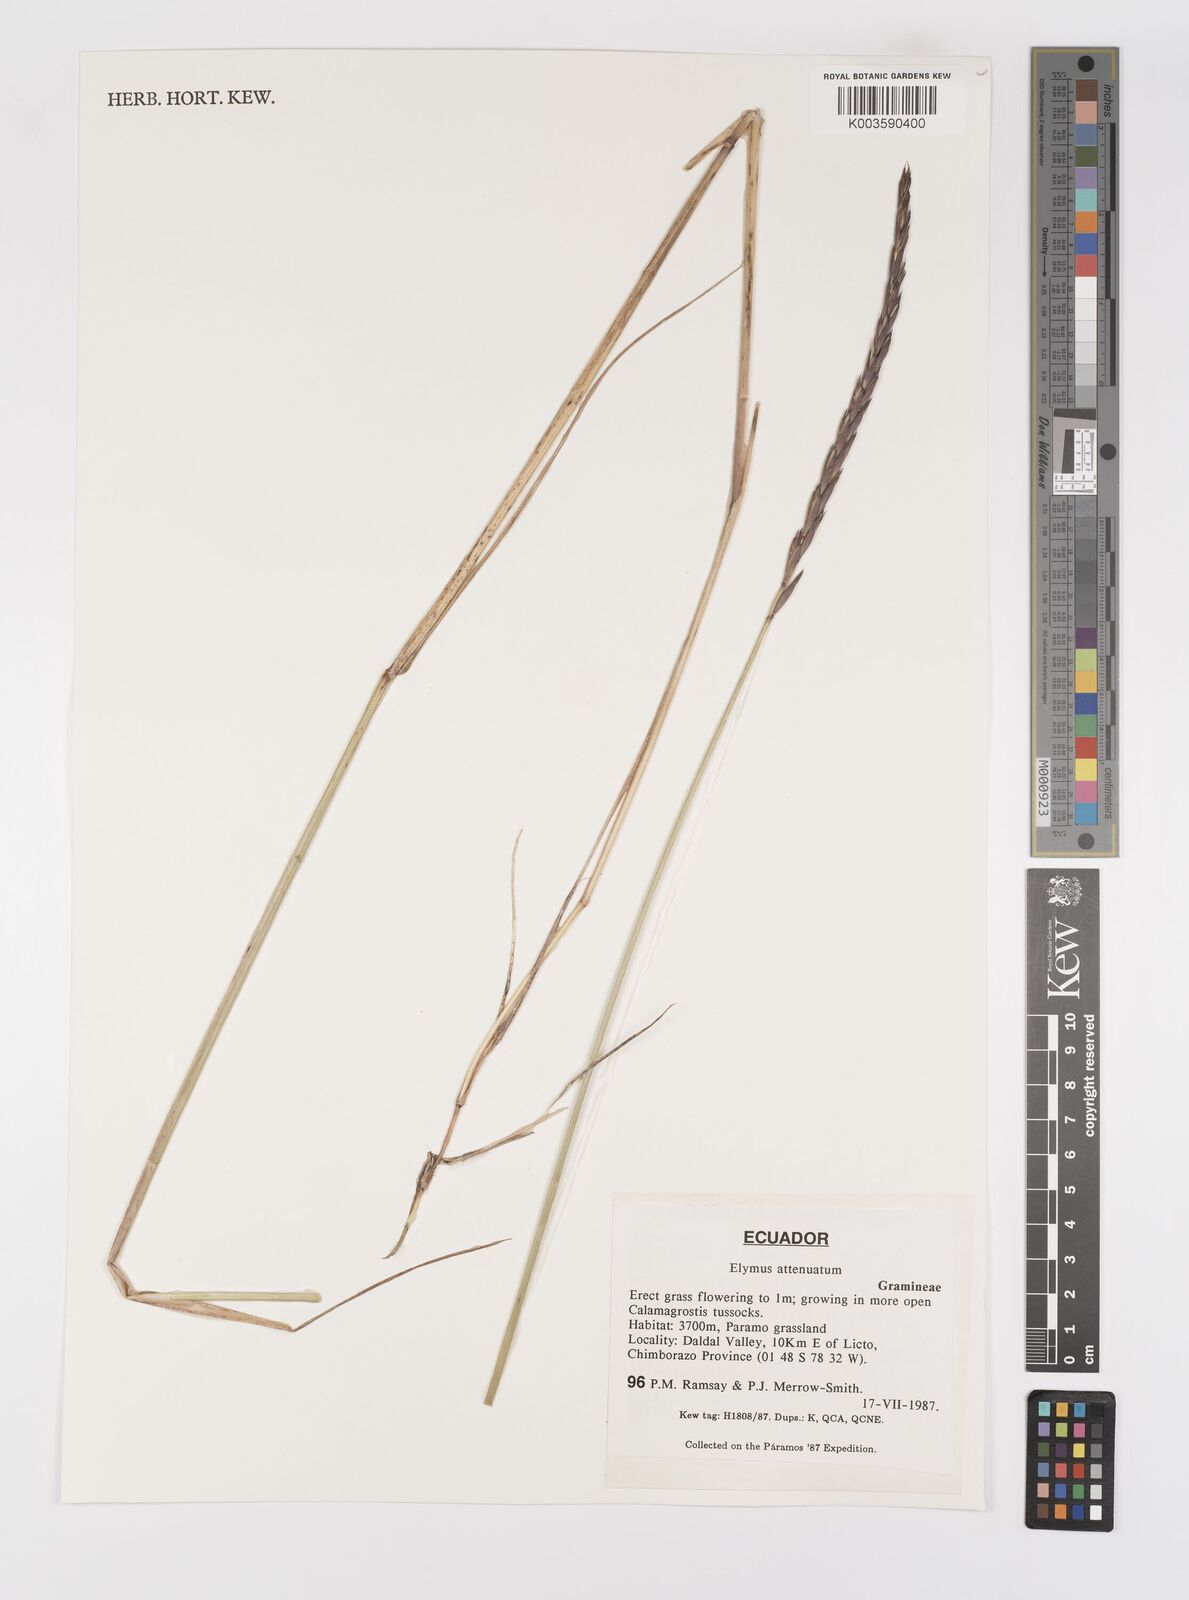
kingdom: Plantae
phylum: Tracheophyta
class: Liliopsida
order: Poales
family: Poaceae
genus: Elymus
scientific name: Elymus cordilleranus
